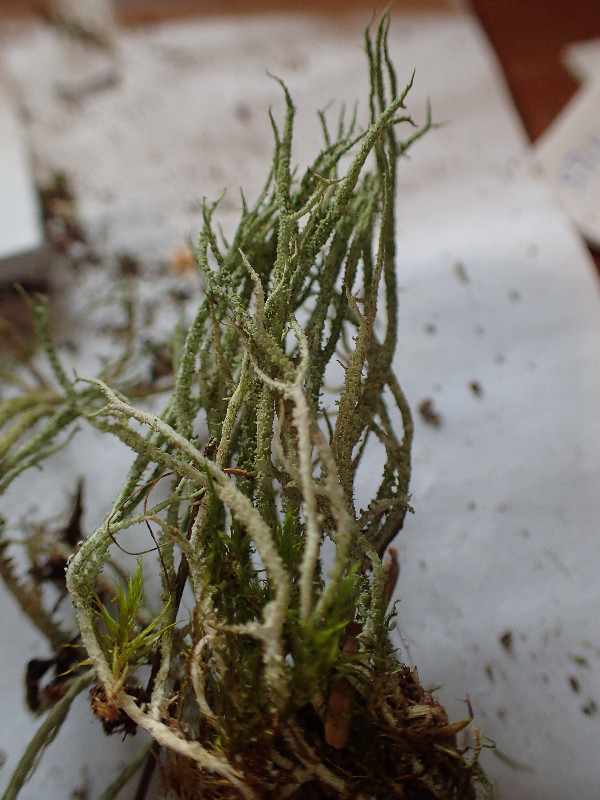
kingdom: Fungi
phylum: Ascomycota
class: Lecanoromycetes
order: Lecanorales
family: Cladoniaceae
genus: Cladonia
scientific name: Cladonia scabriuscula
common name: ru bægerlav
